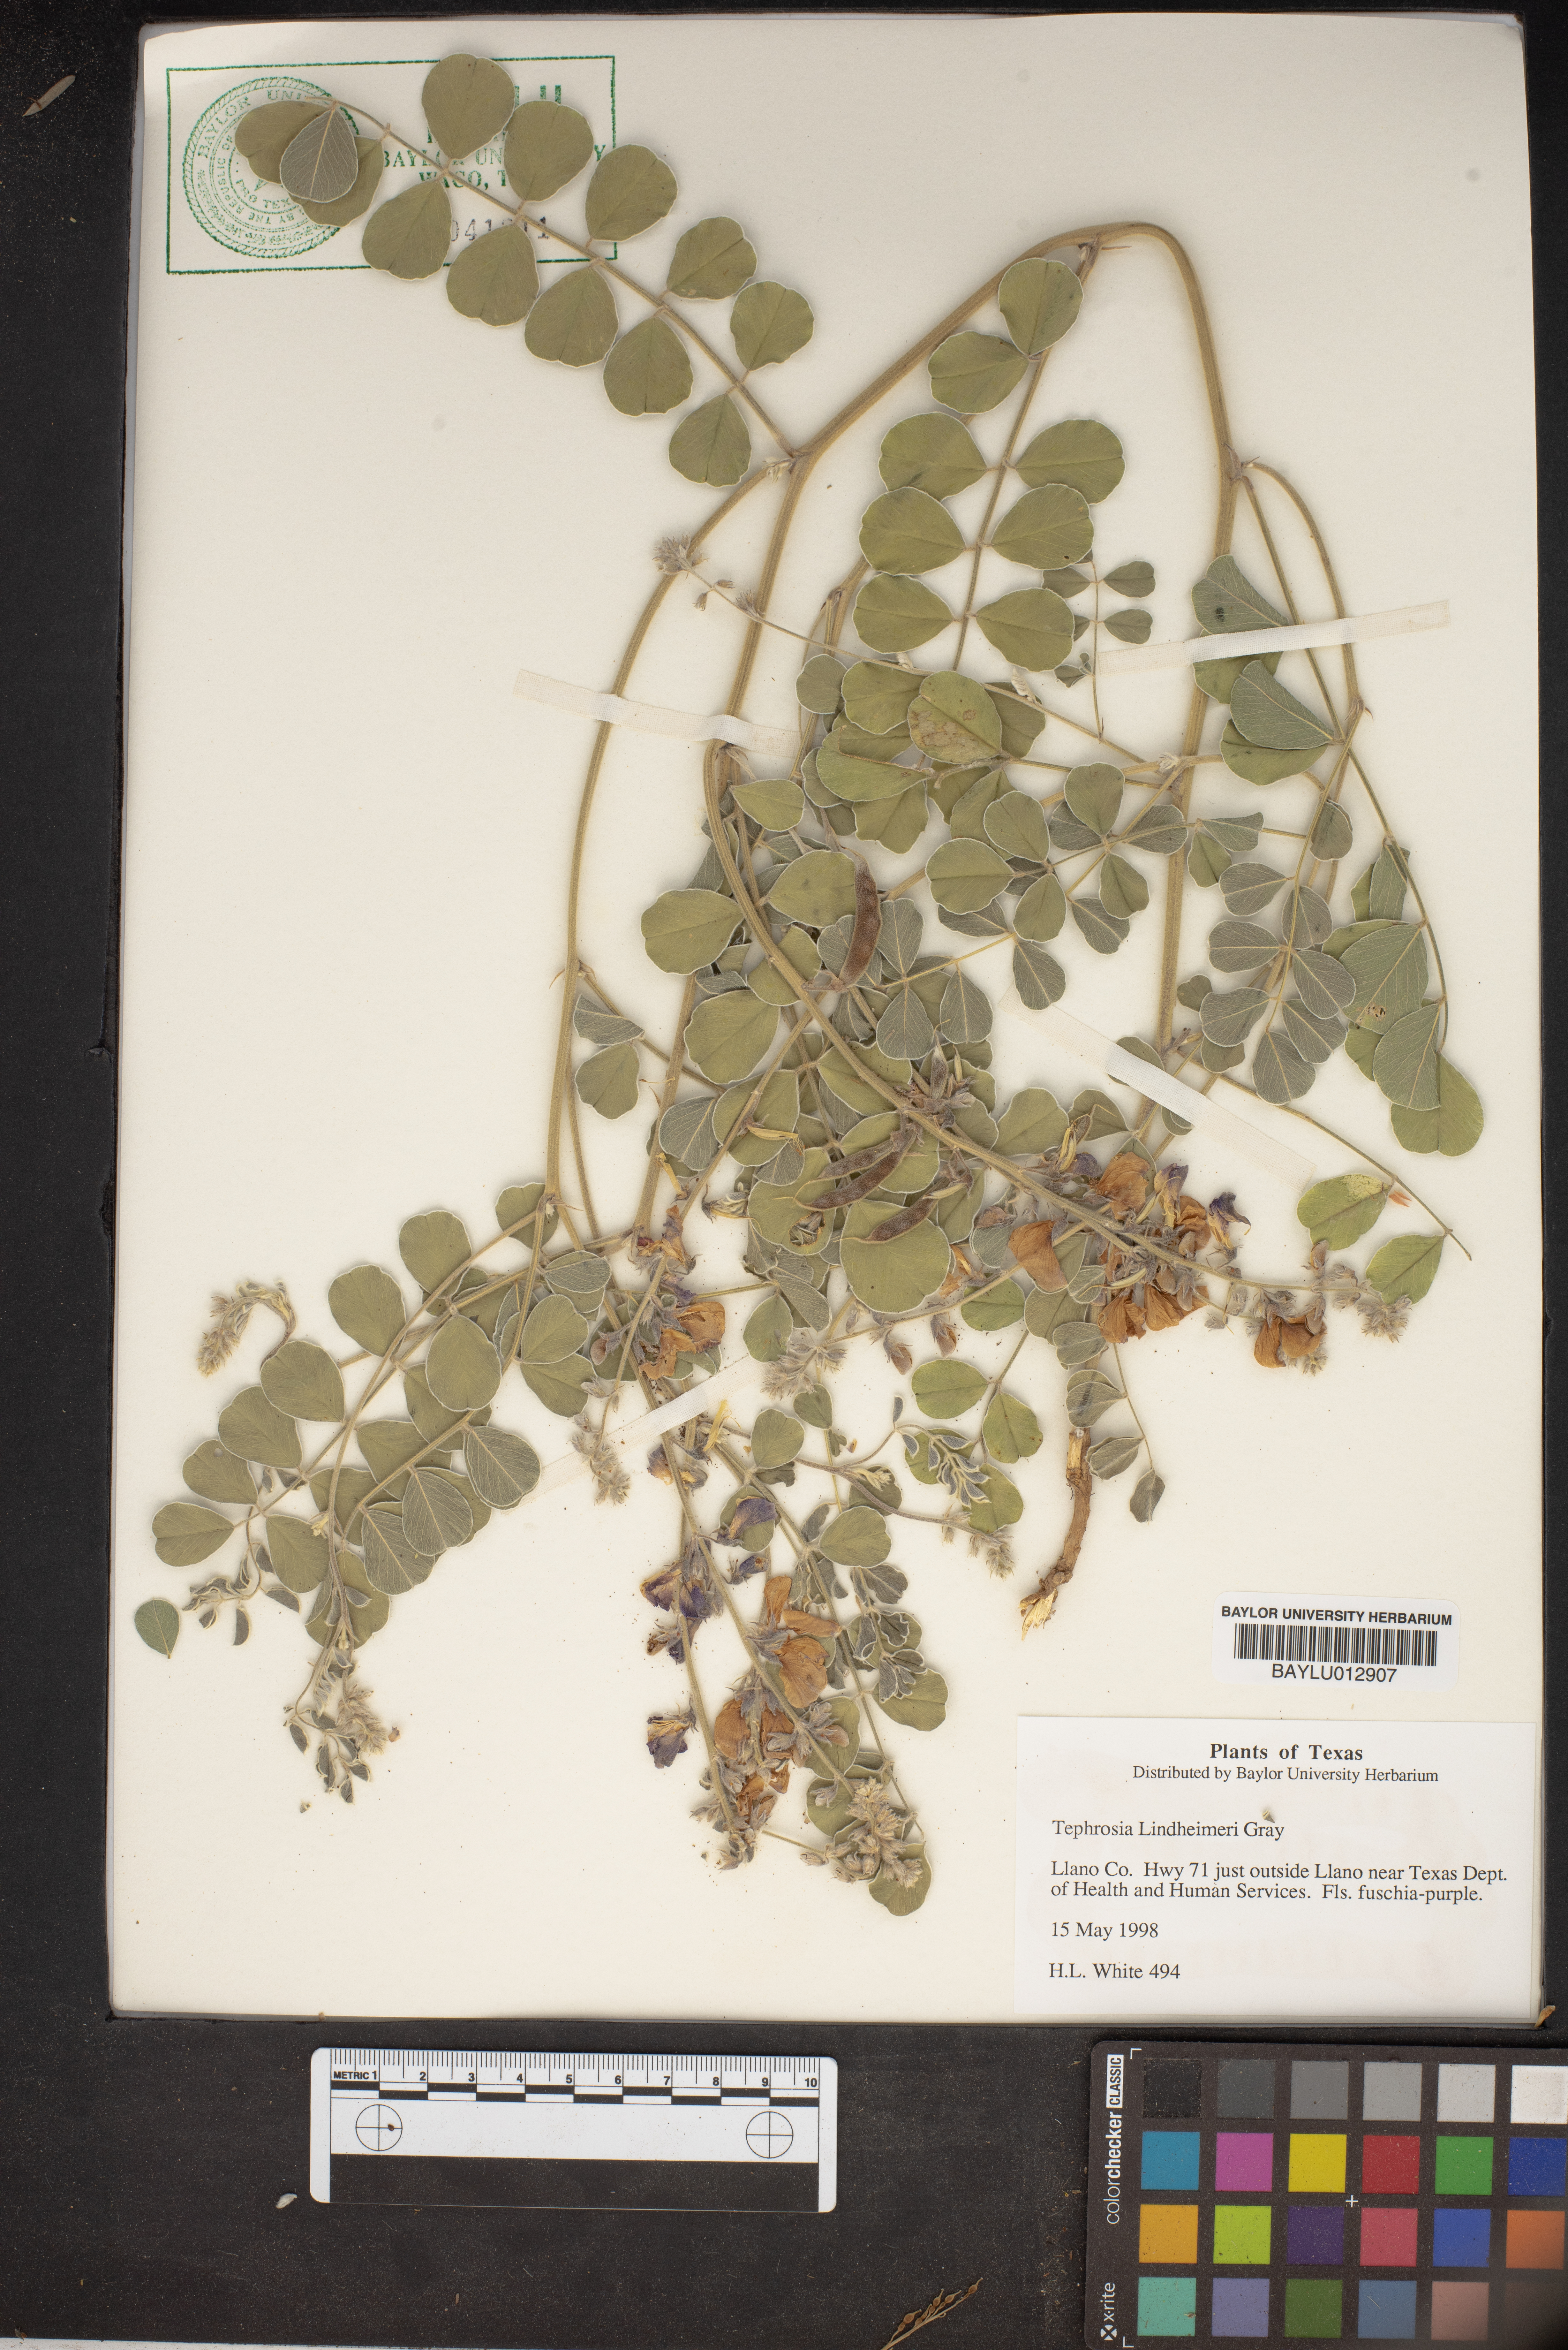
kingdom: Plantae
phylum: Tracheophyta
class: Magnoliopsida
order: Fabales
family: Fabaceae
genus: Tephrosia
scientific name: Tephrosia lindheimeri
